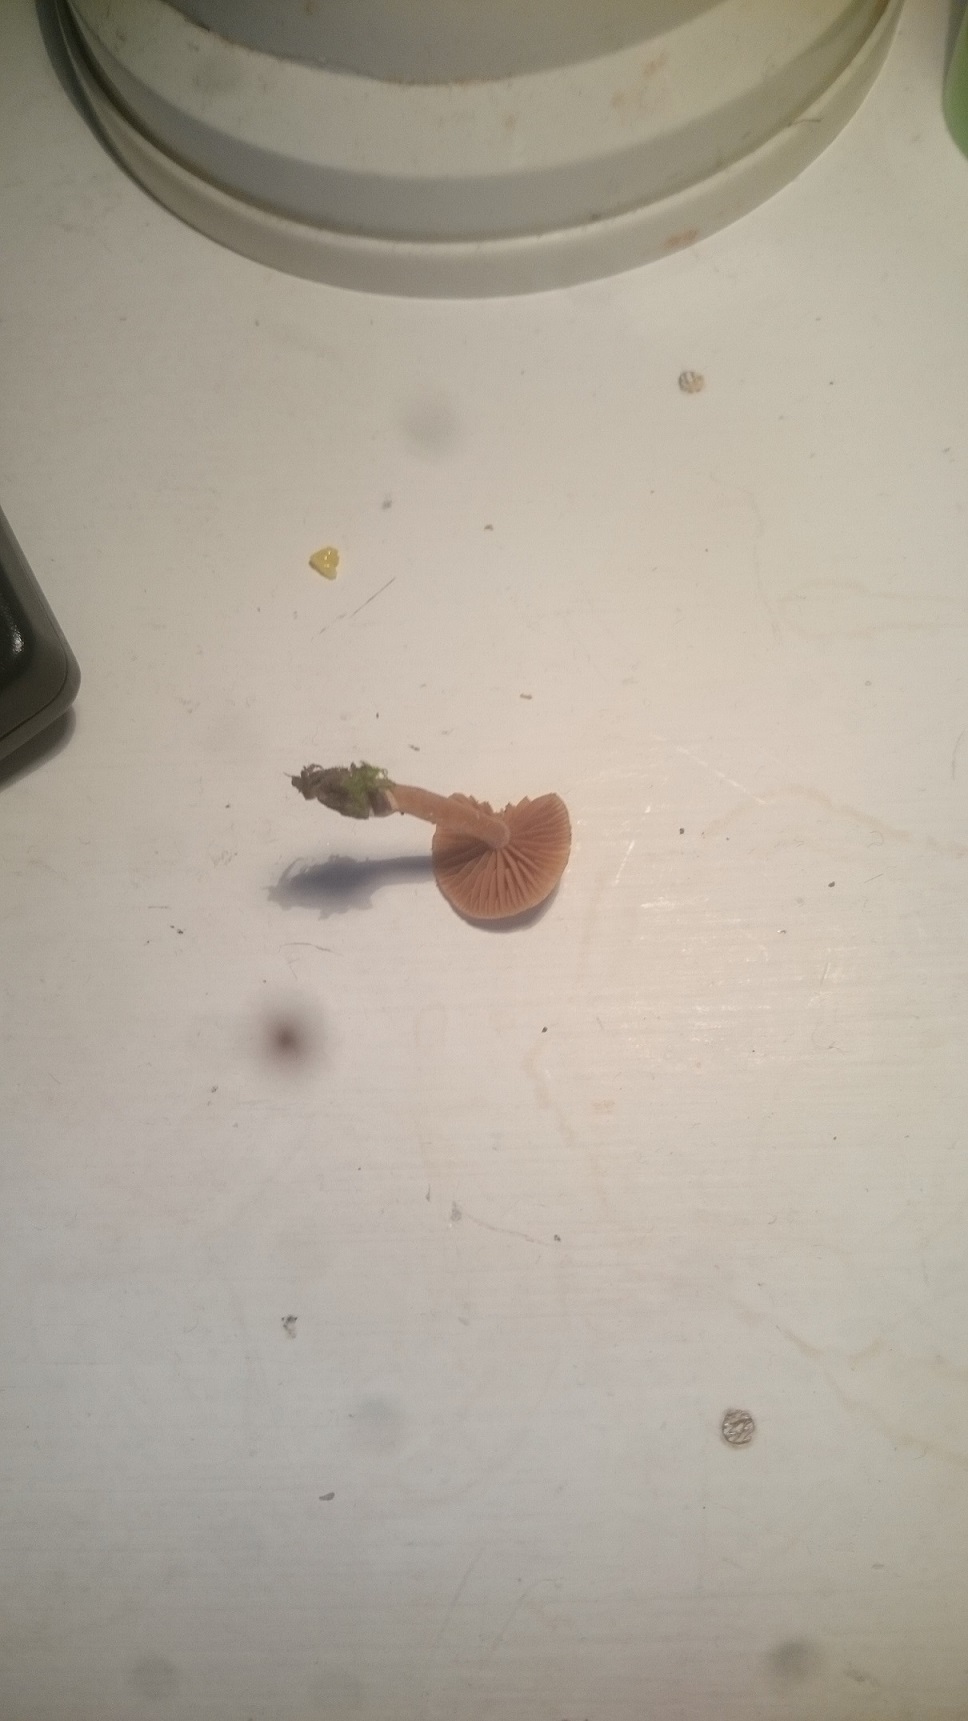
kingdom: Fungi
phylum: Basidiomycota
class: Agaricomycetes
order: Agaricales
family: Tubariaceae
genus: Tubaria
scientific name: Tubaria furfuracea
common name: kliddet fnughat
